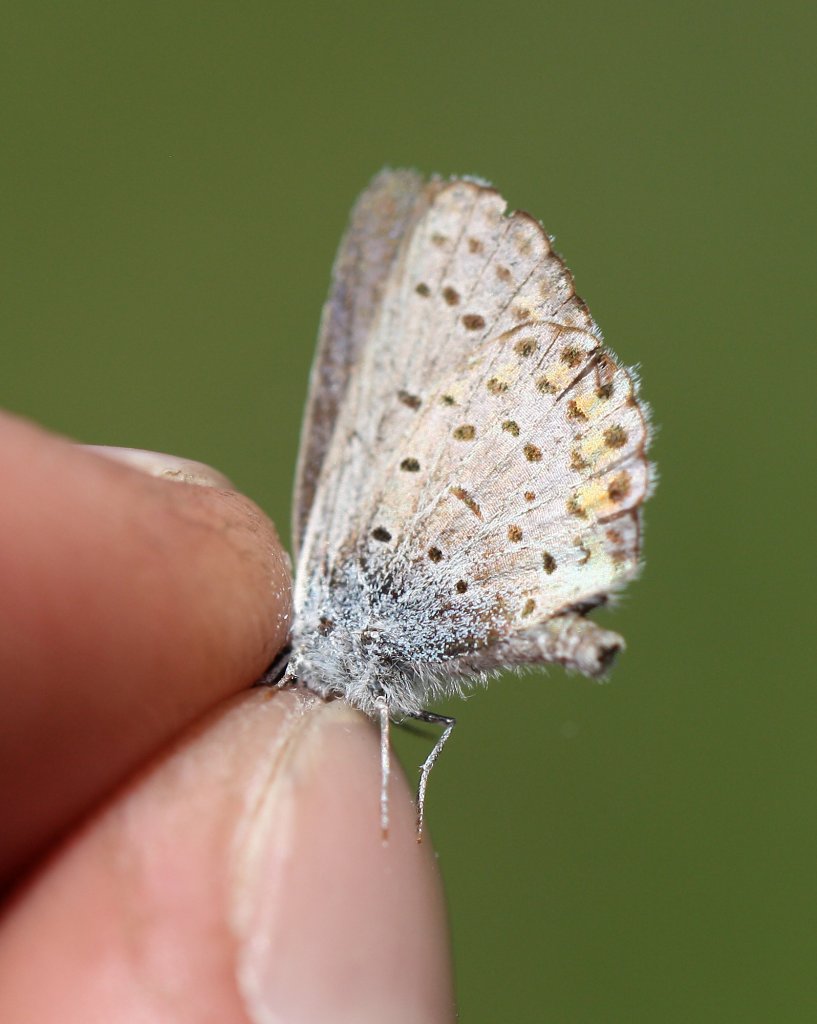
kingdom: Animalia
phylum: Arthropoda
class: Insecta
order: Lepidoptera
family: Lycaenidae
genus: Lycaeides
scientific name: Lycaeides melissa
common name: Melissa Blue
